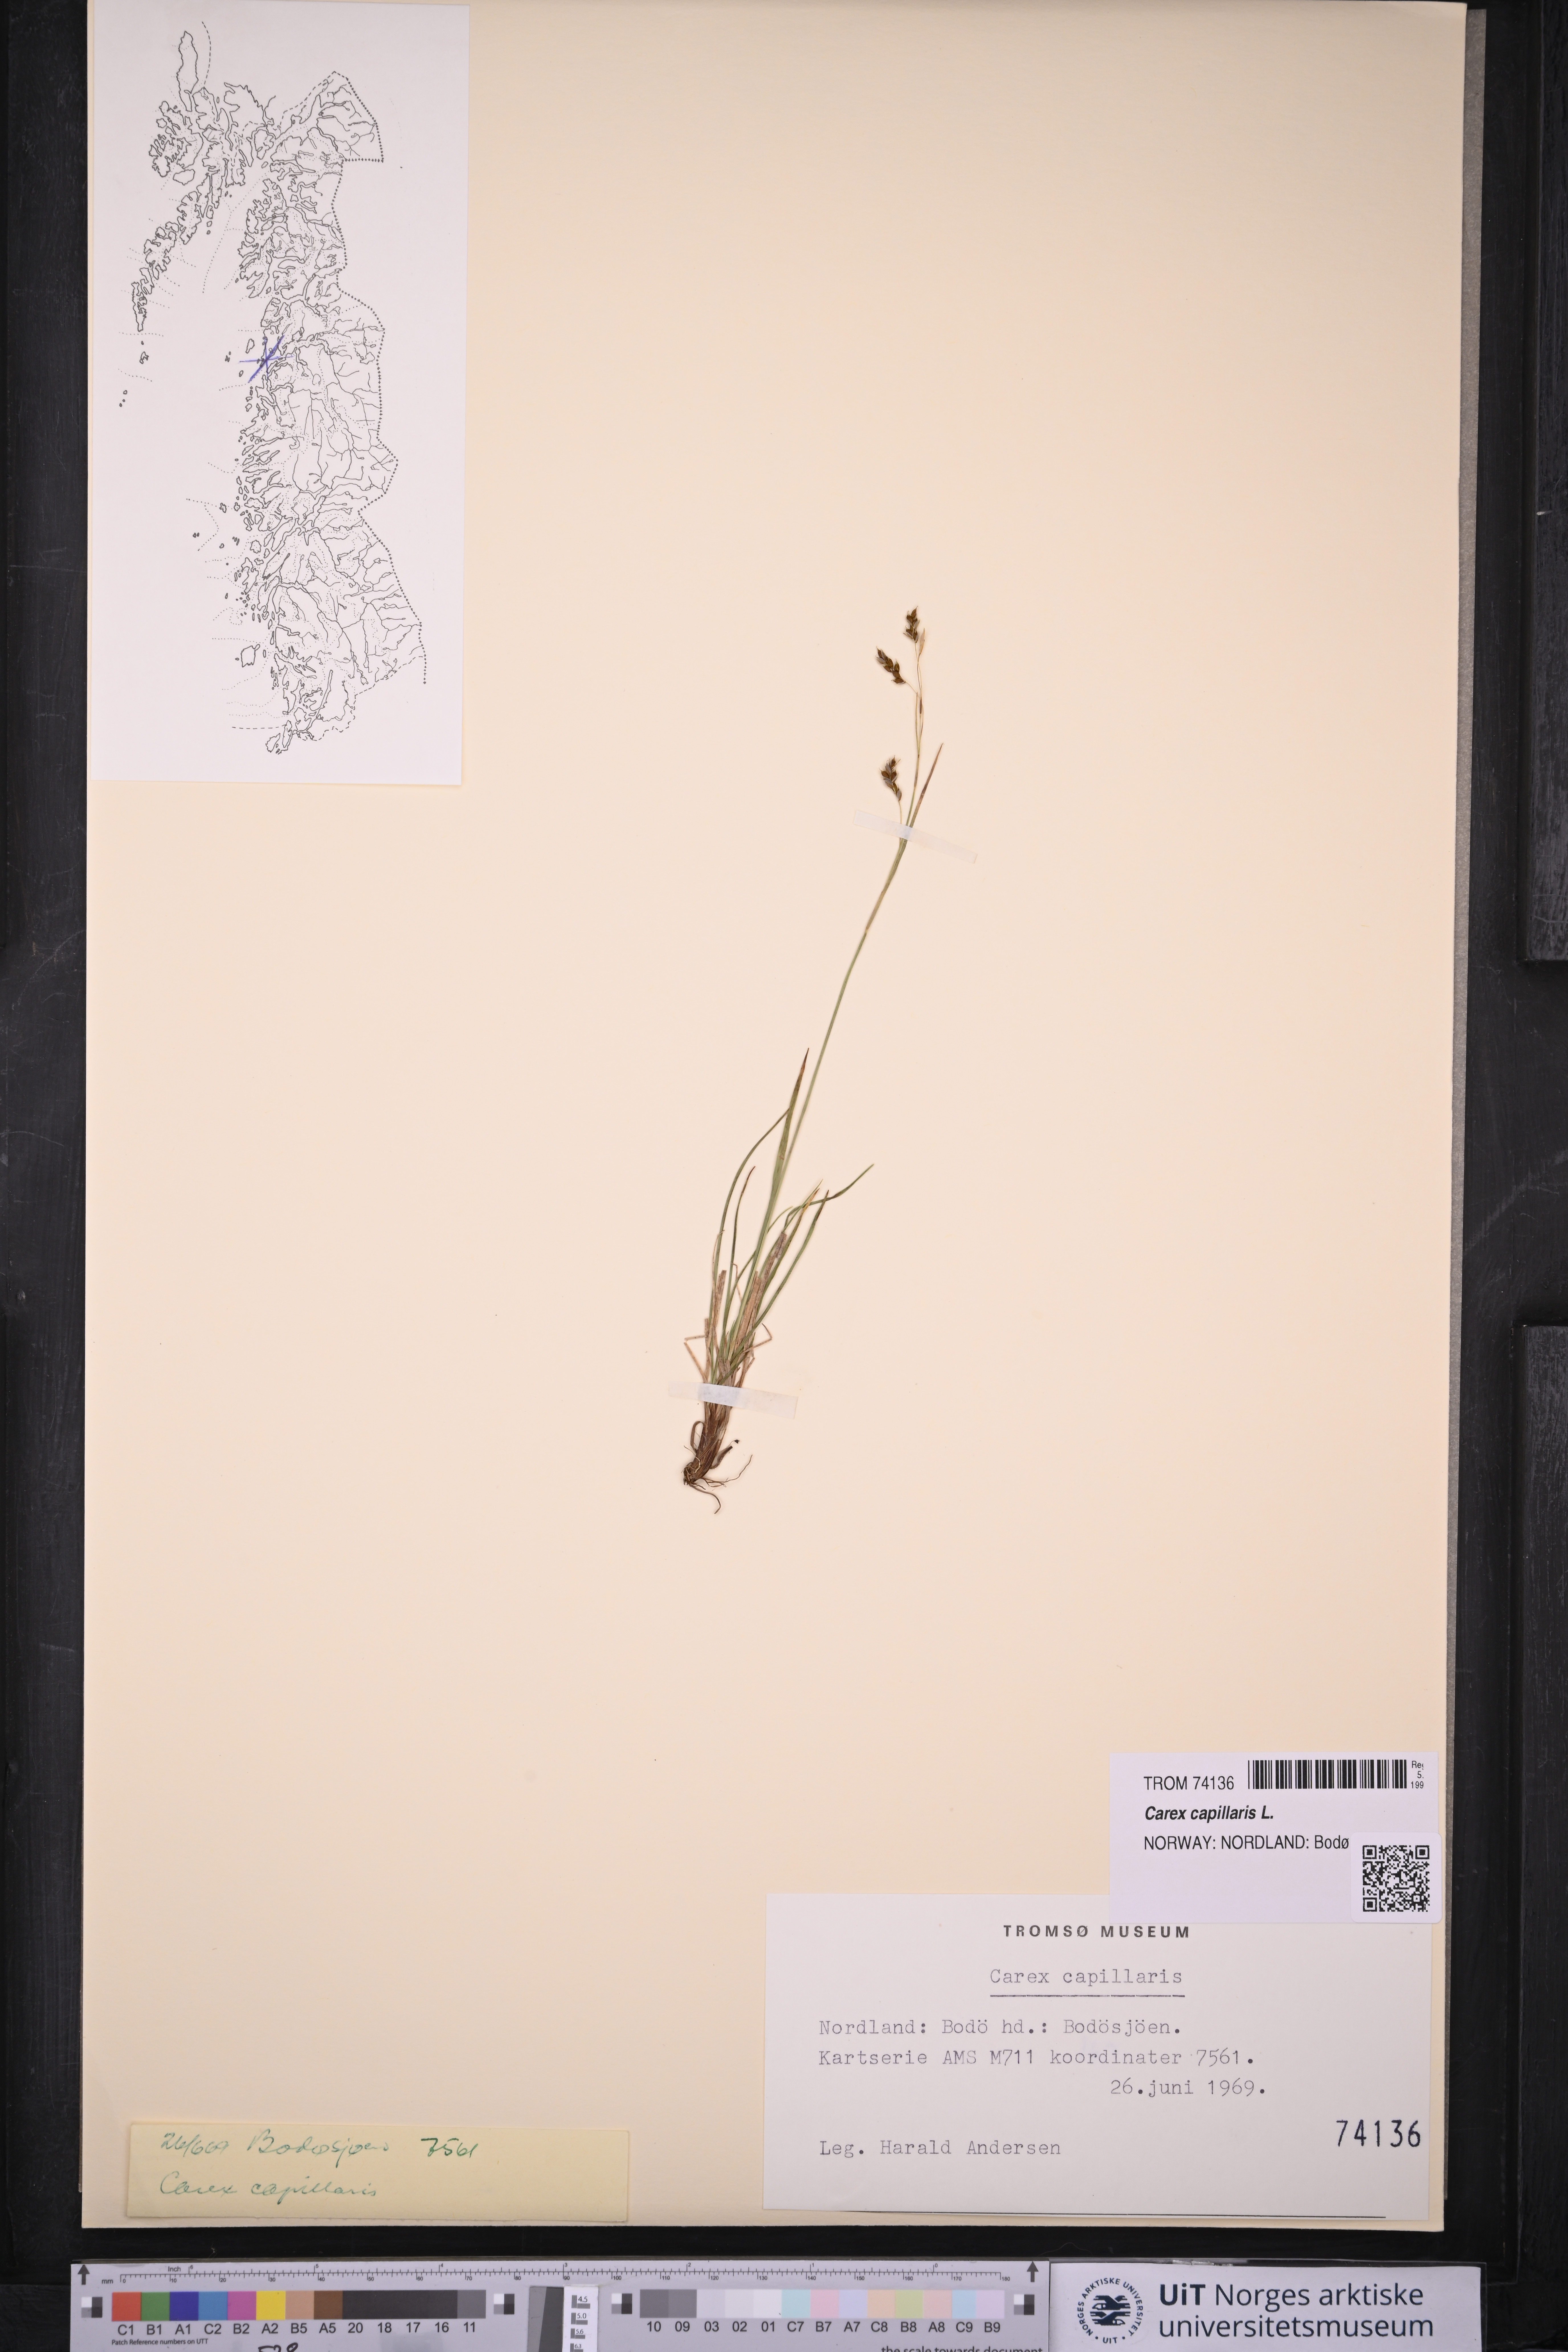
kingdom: Plantae
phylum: Tracheophyta
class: Liliopsida
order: Poales
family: Cyperaceae
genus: Carex
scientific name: Carex capillaris
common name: Hair sedge
